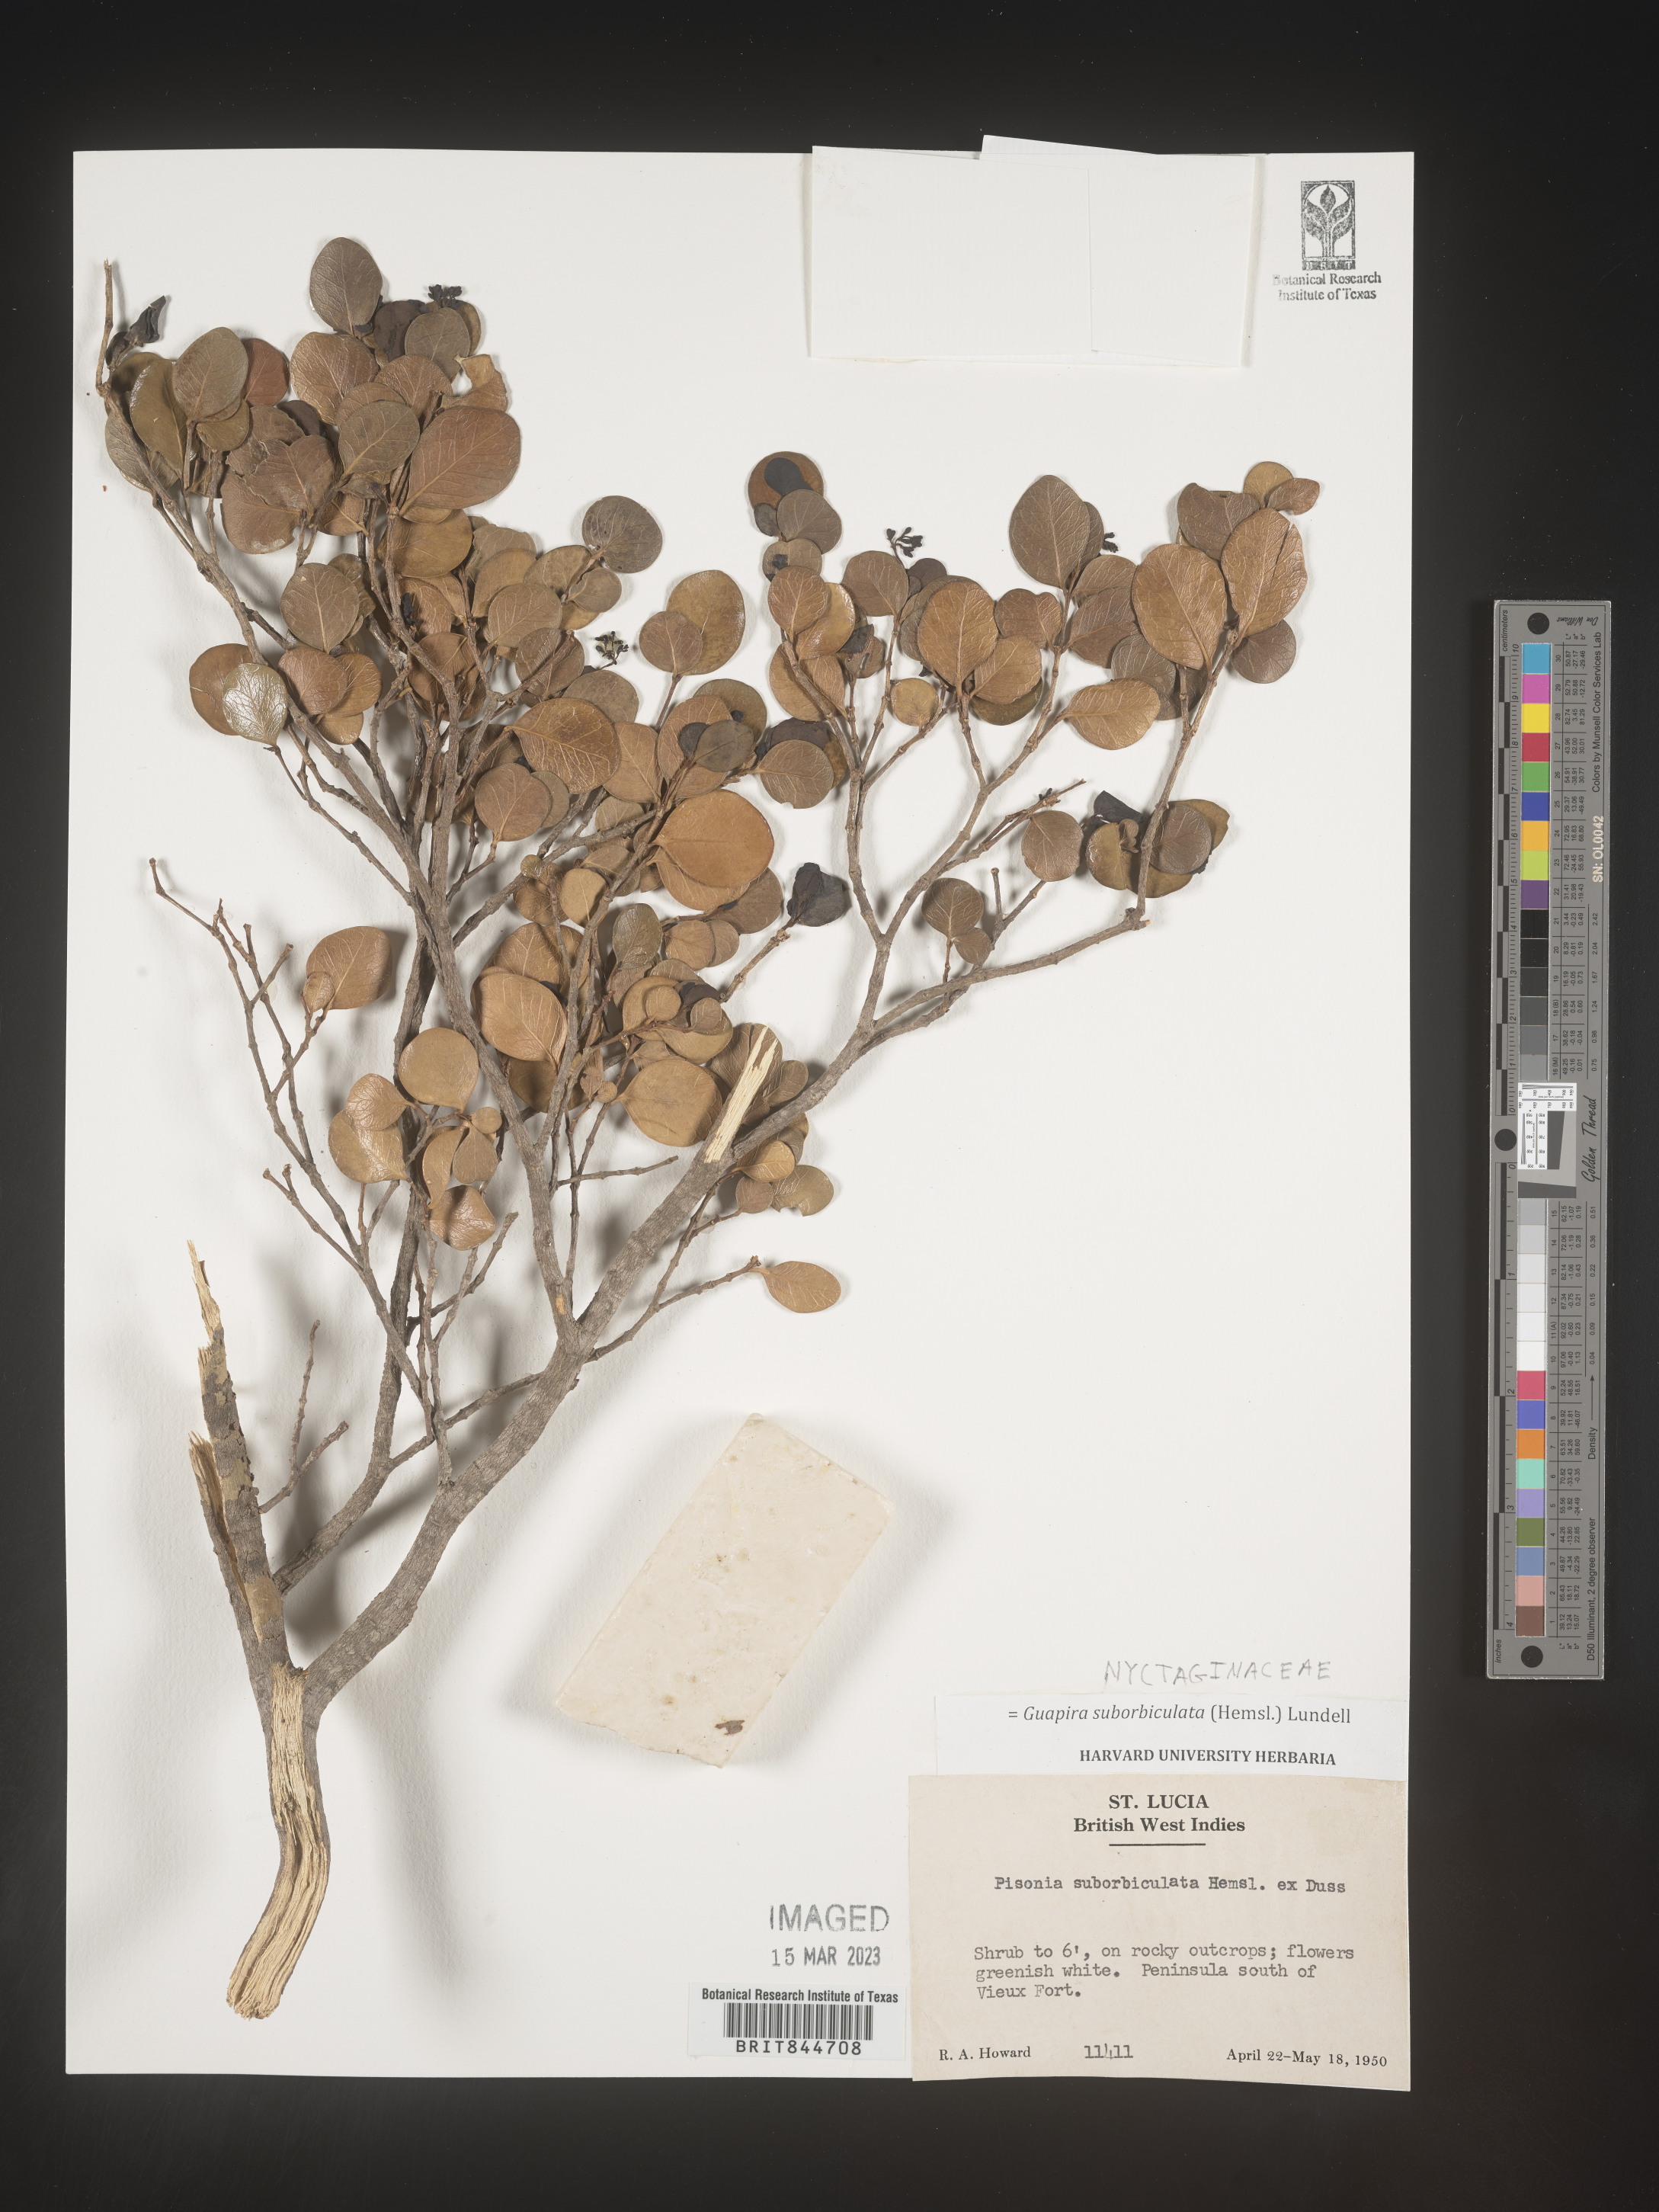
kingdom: Plantae
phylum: Tracheophyta
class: Magnoliopsida
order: Caryophyllales
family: Nyctaginaceae
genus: Guapira
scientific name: Guapira
